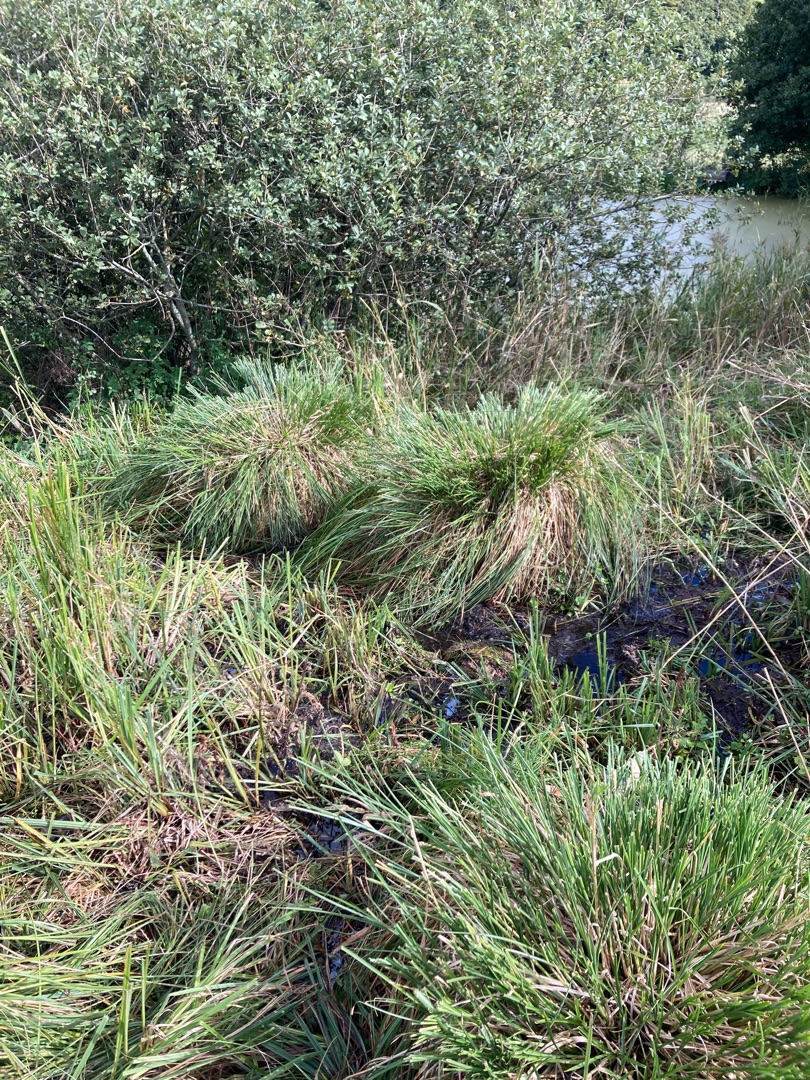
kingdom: Plantae
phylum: Tracheophyta
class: Liliopsida
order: Poales
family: Cyperaceae
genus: Carex
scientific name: Carex paniculata
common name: Top-star
